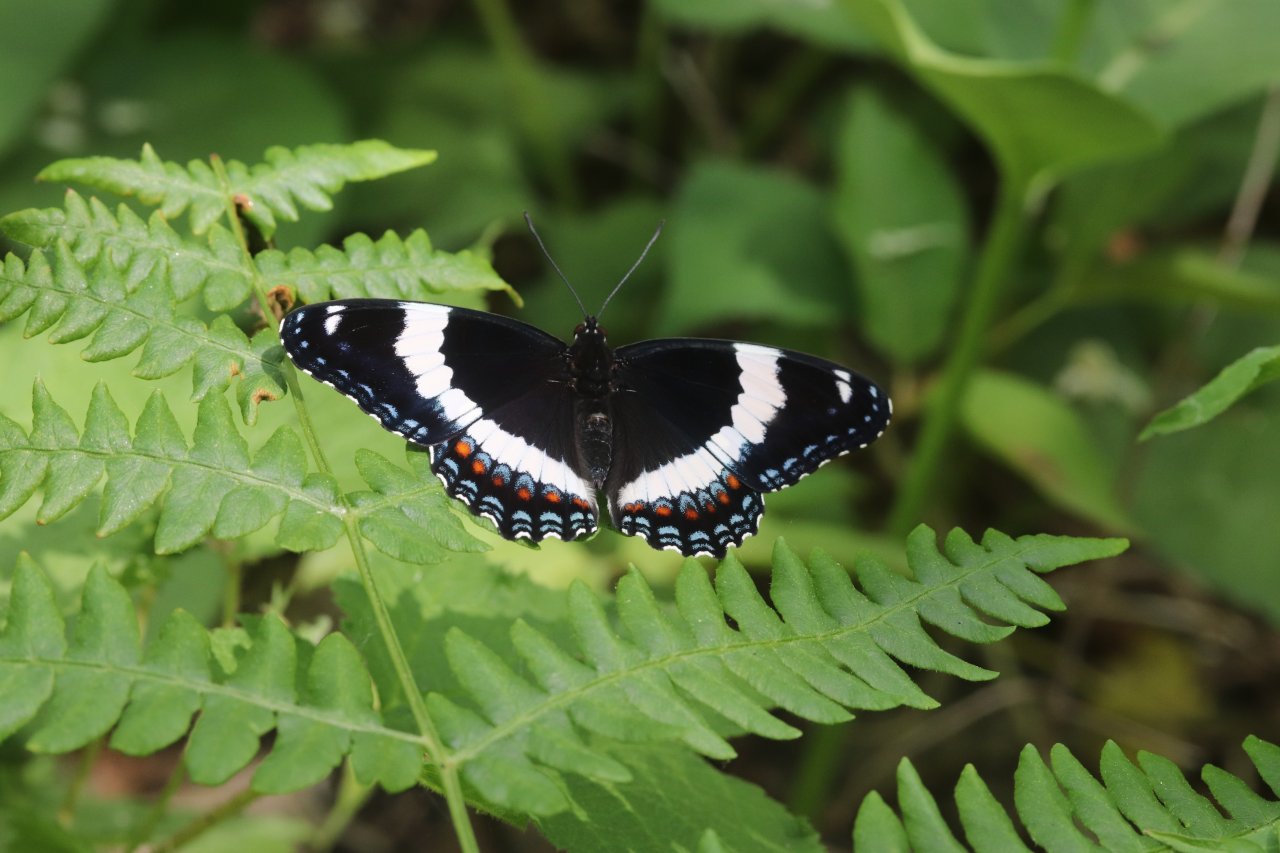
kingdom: Animalia
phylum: Arthropoda
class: Insecta
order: Lepidoptera
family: Nymphalidae
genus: Limenitis
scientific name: Limenitis arthemis
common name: Red-spotted Admiral
